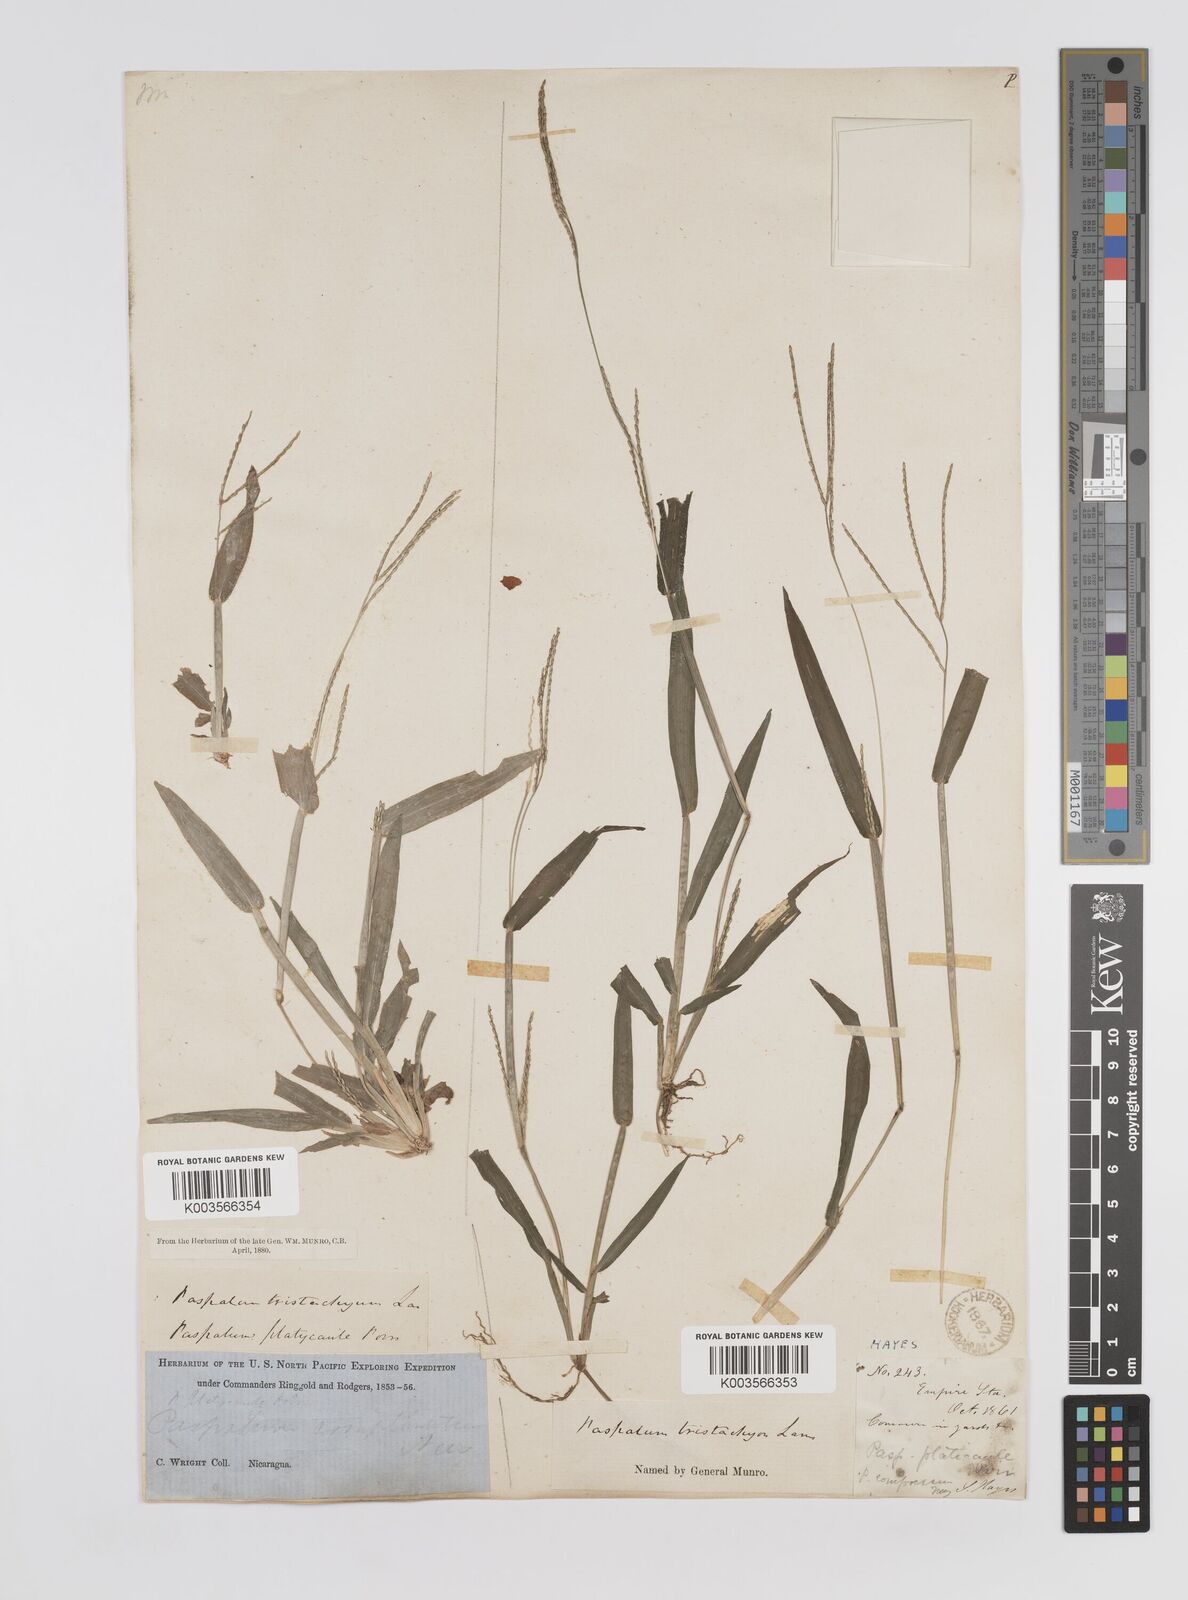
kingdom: Plantae
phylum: Tracheophyta
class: Liliopsida
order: Poales
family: Poaceae
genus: Axonopus
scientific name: Axonopus compressus
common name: American carpet grass
